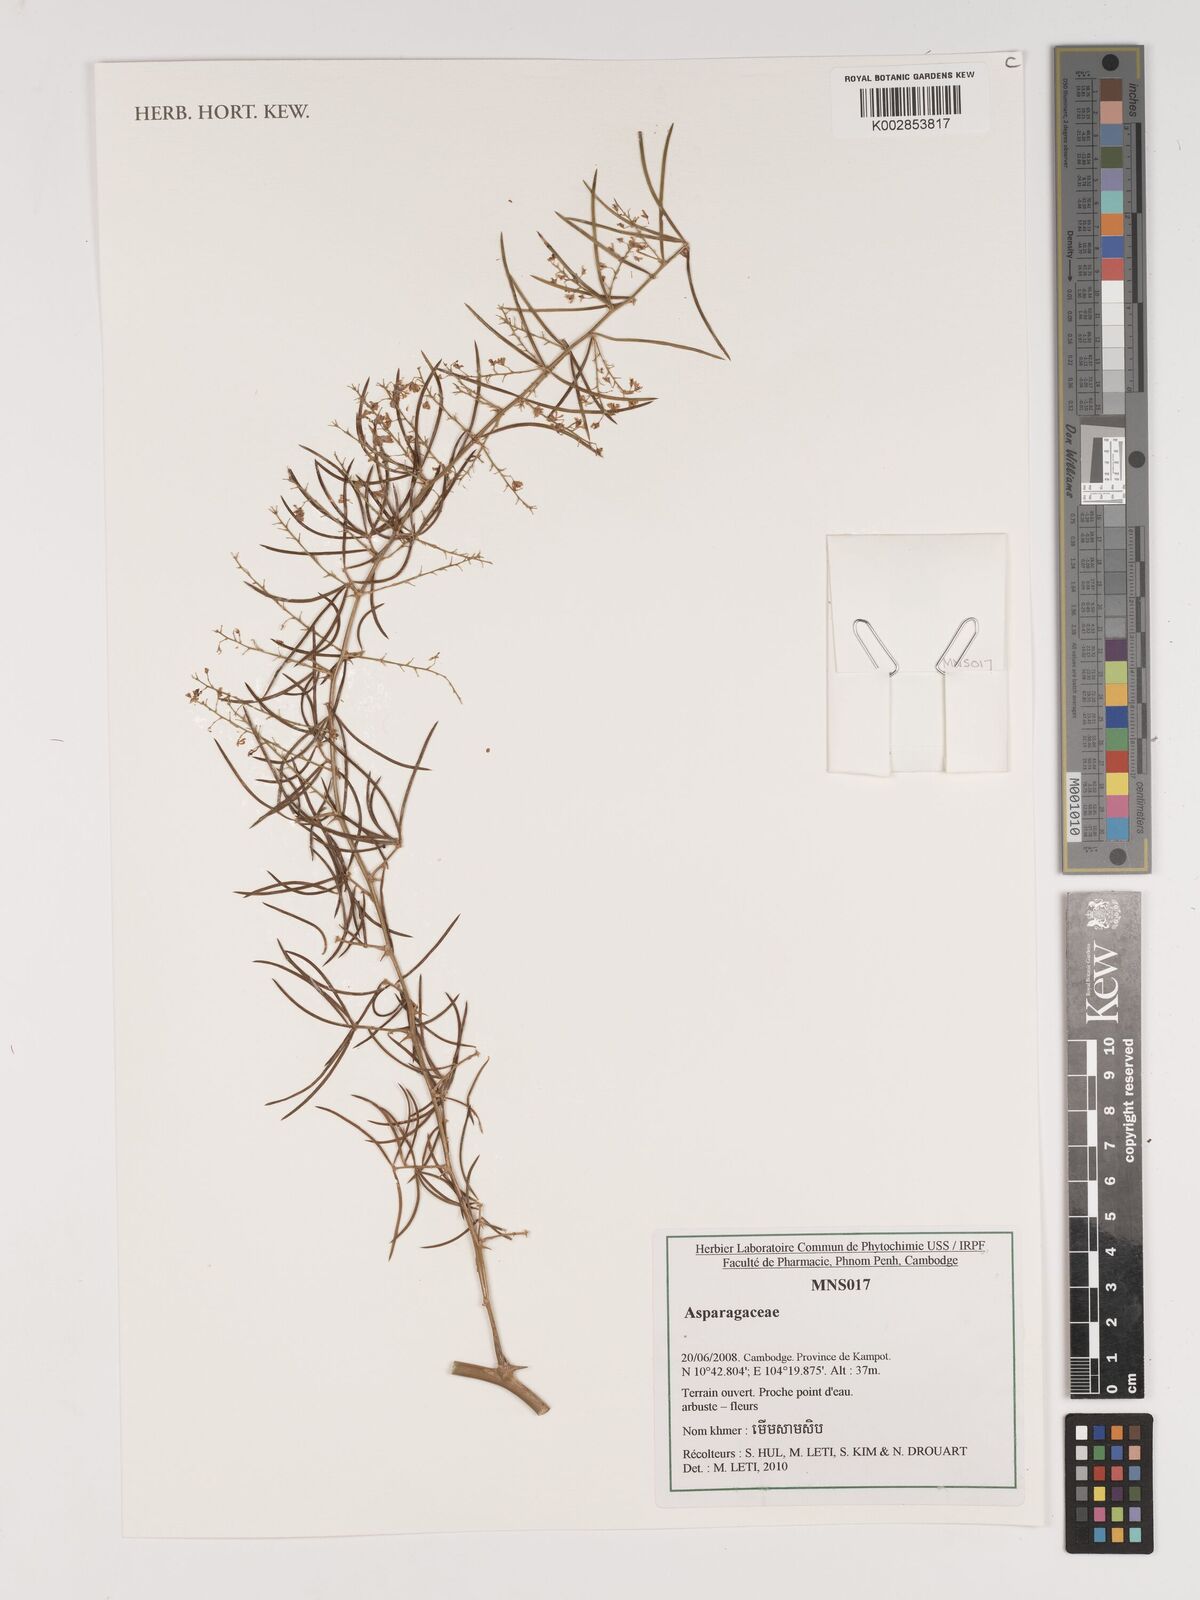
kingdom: Plantae
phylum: Tracheophyta
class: Liliopsida
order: Asparagales
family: Asparagaceae
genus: Asparagus
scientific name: Asparagus
